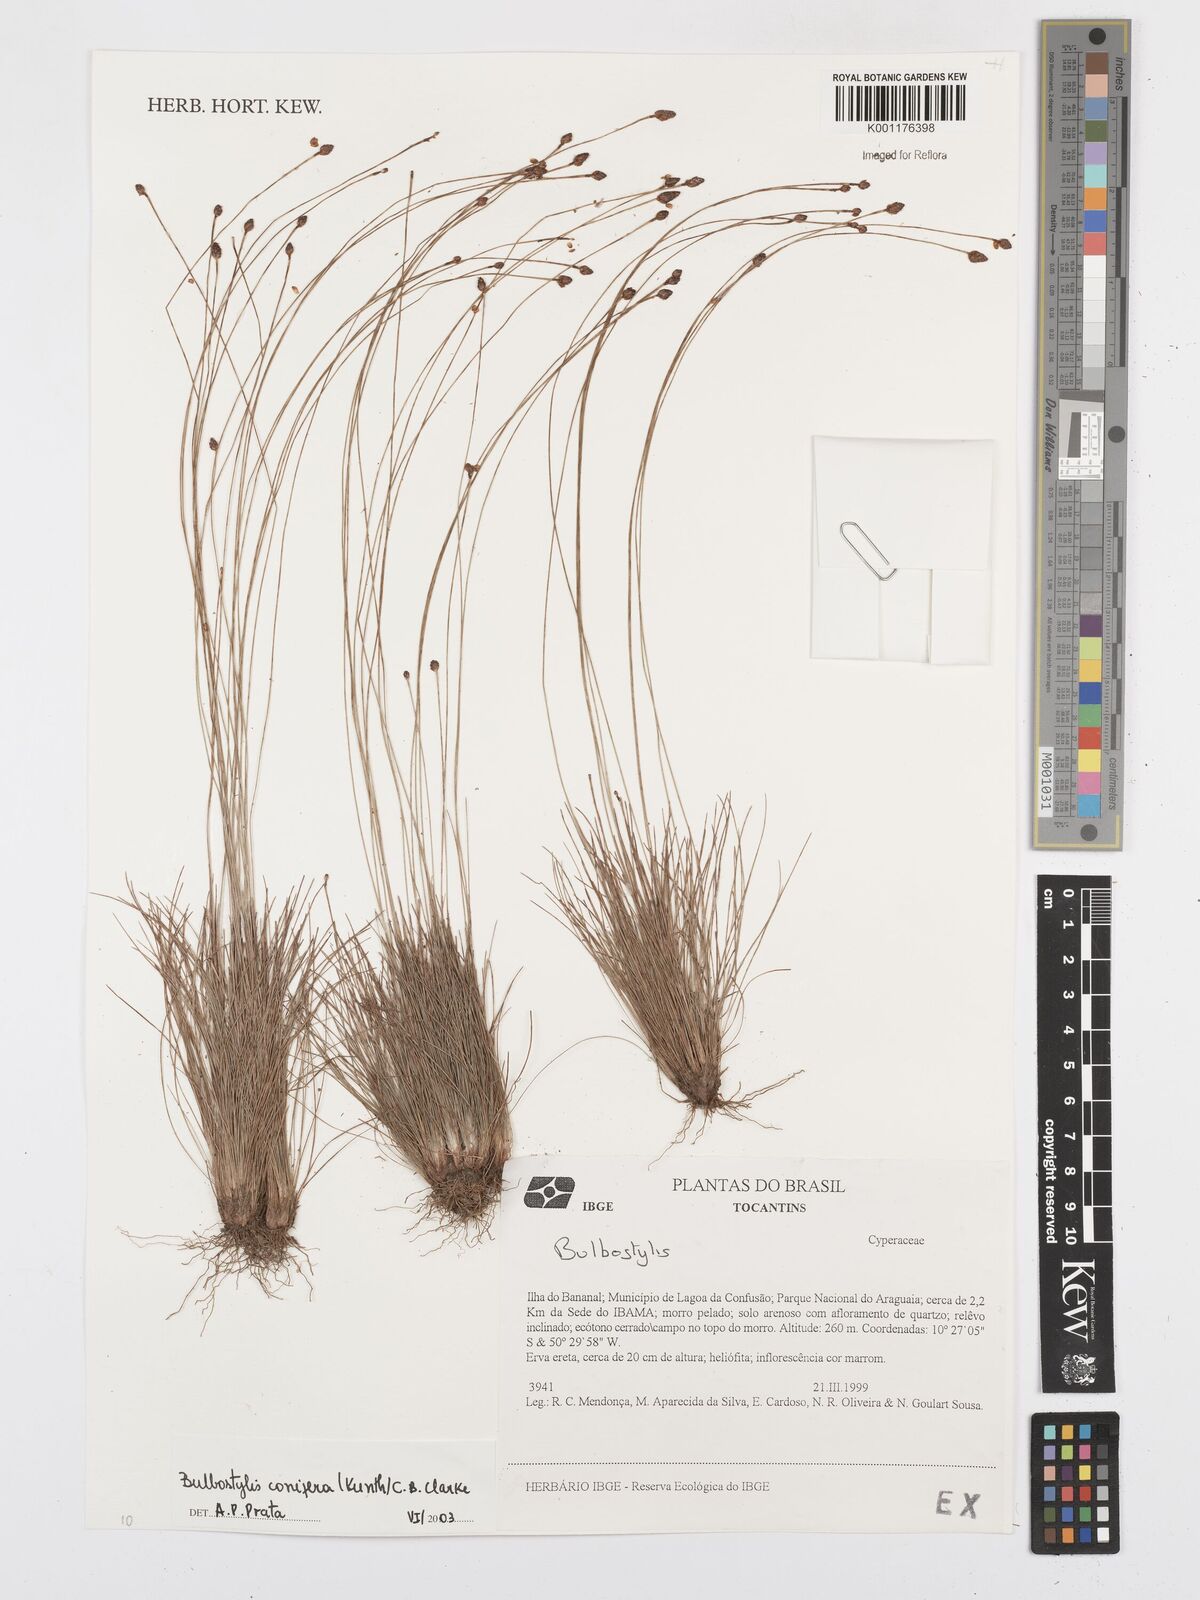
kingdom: Plantae
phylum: Tracheophyta
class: Liliopsida
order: Poales
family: Cyperaceae
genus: Bulbostylis
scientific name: Bulbostylis conifera
